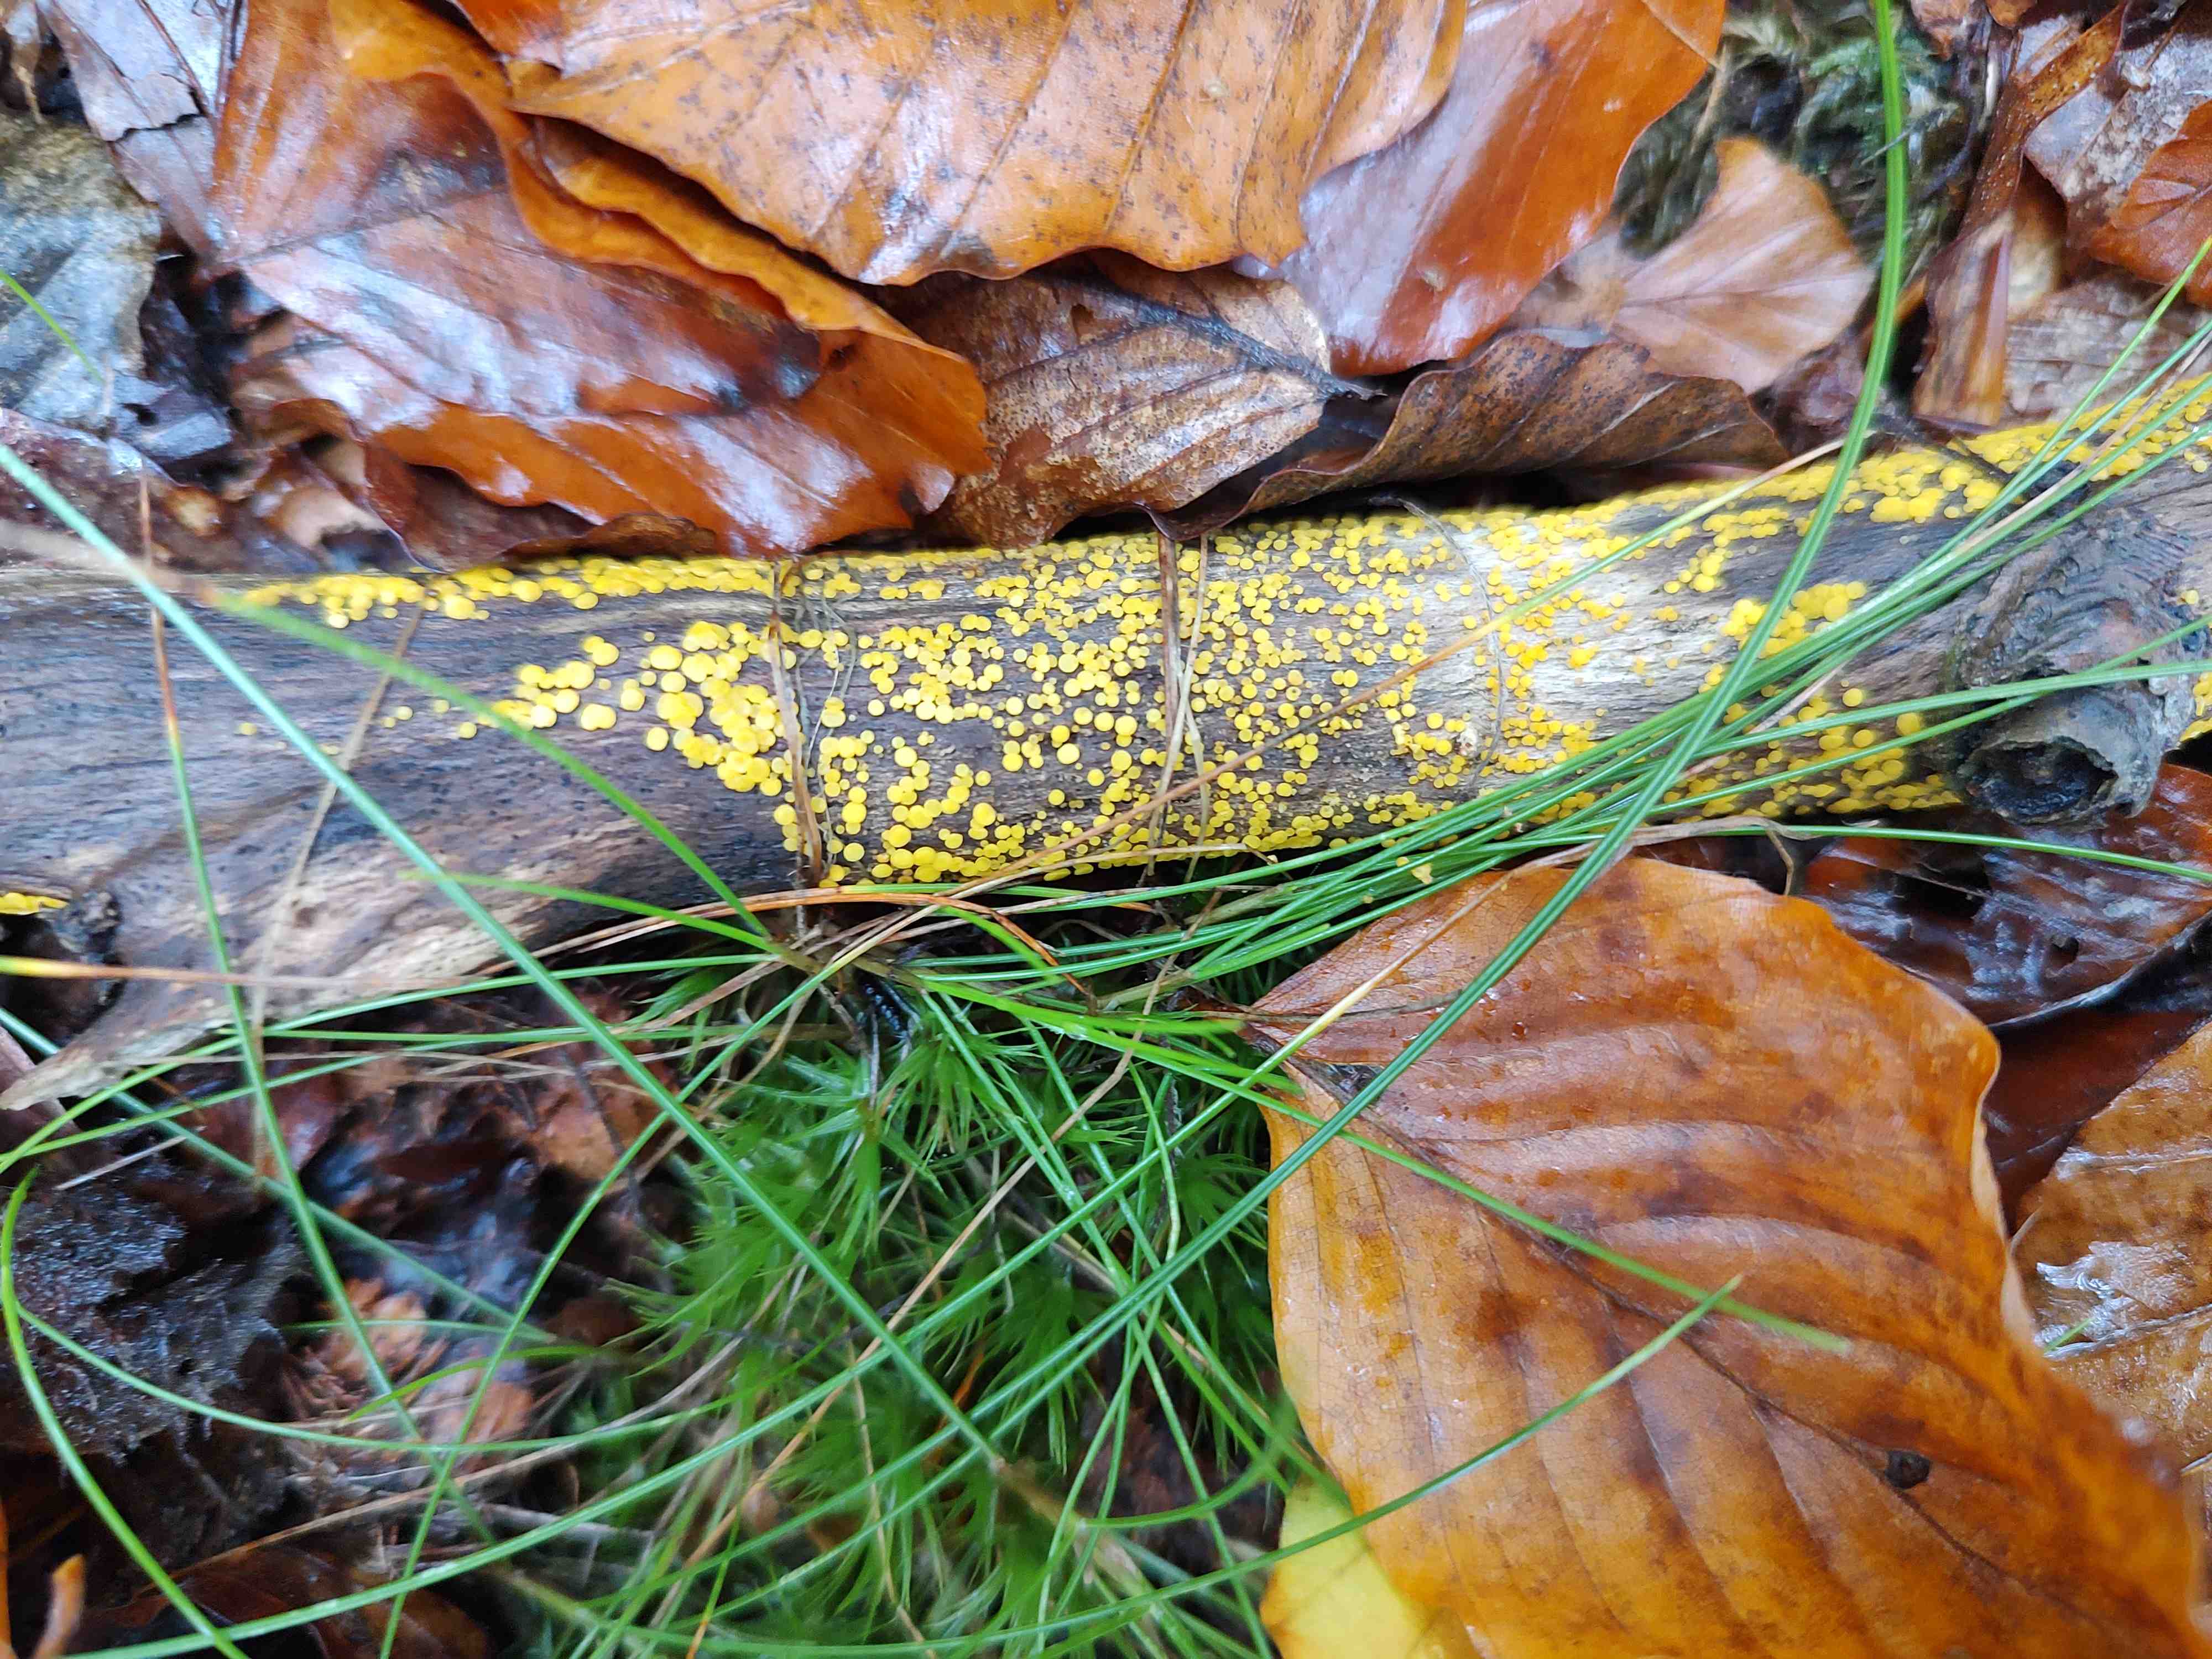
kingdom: Fungi
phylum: Ascomycota
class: Leotiomycetes
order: Helotiales
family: Pezizellaceae
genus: Calycina
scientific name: Calycina citrina
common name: almindelig gulskive
